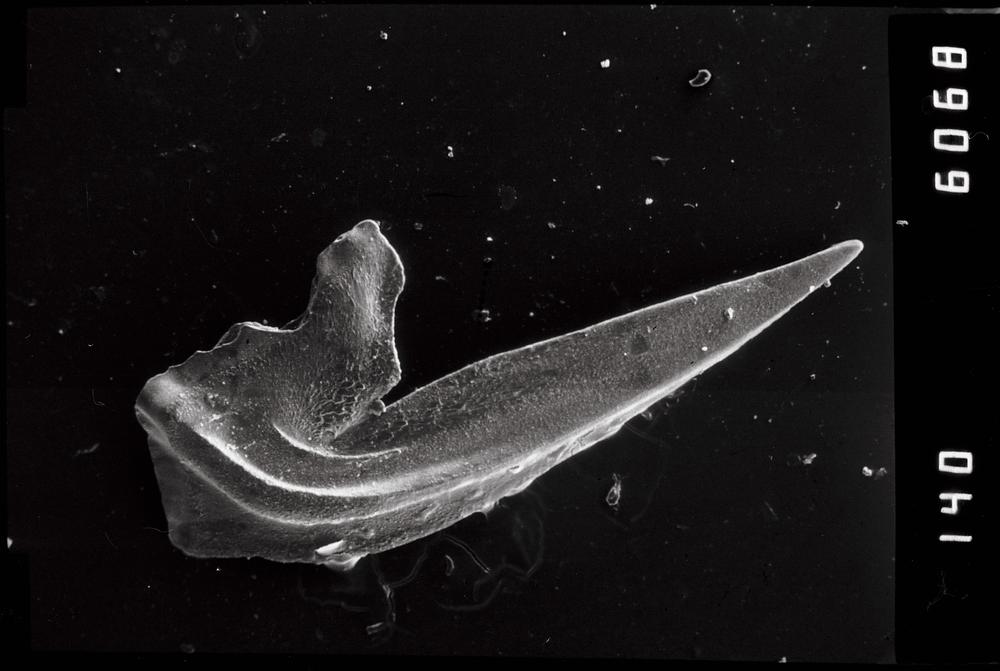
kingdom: Animalia
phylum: Chordata
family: Oistodontidae
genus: Oistodus
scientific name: Oistodus lanceolatus
